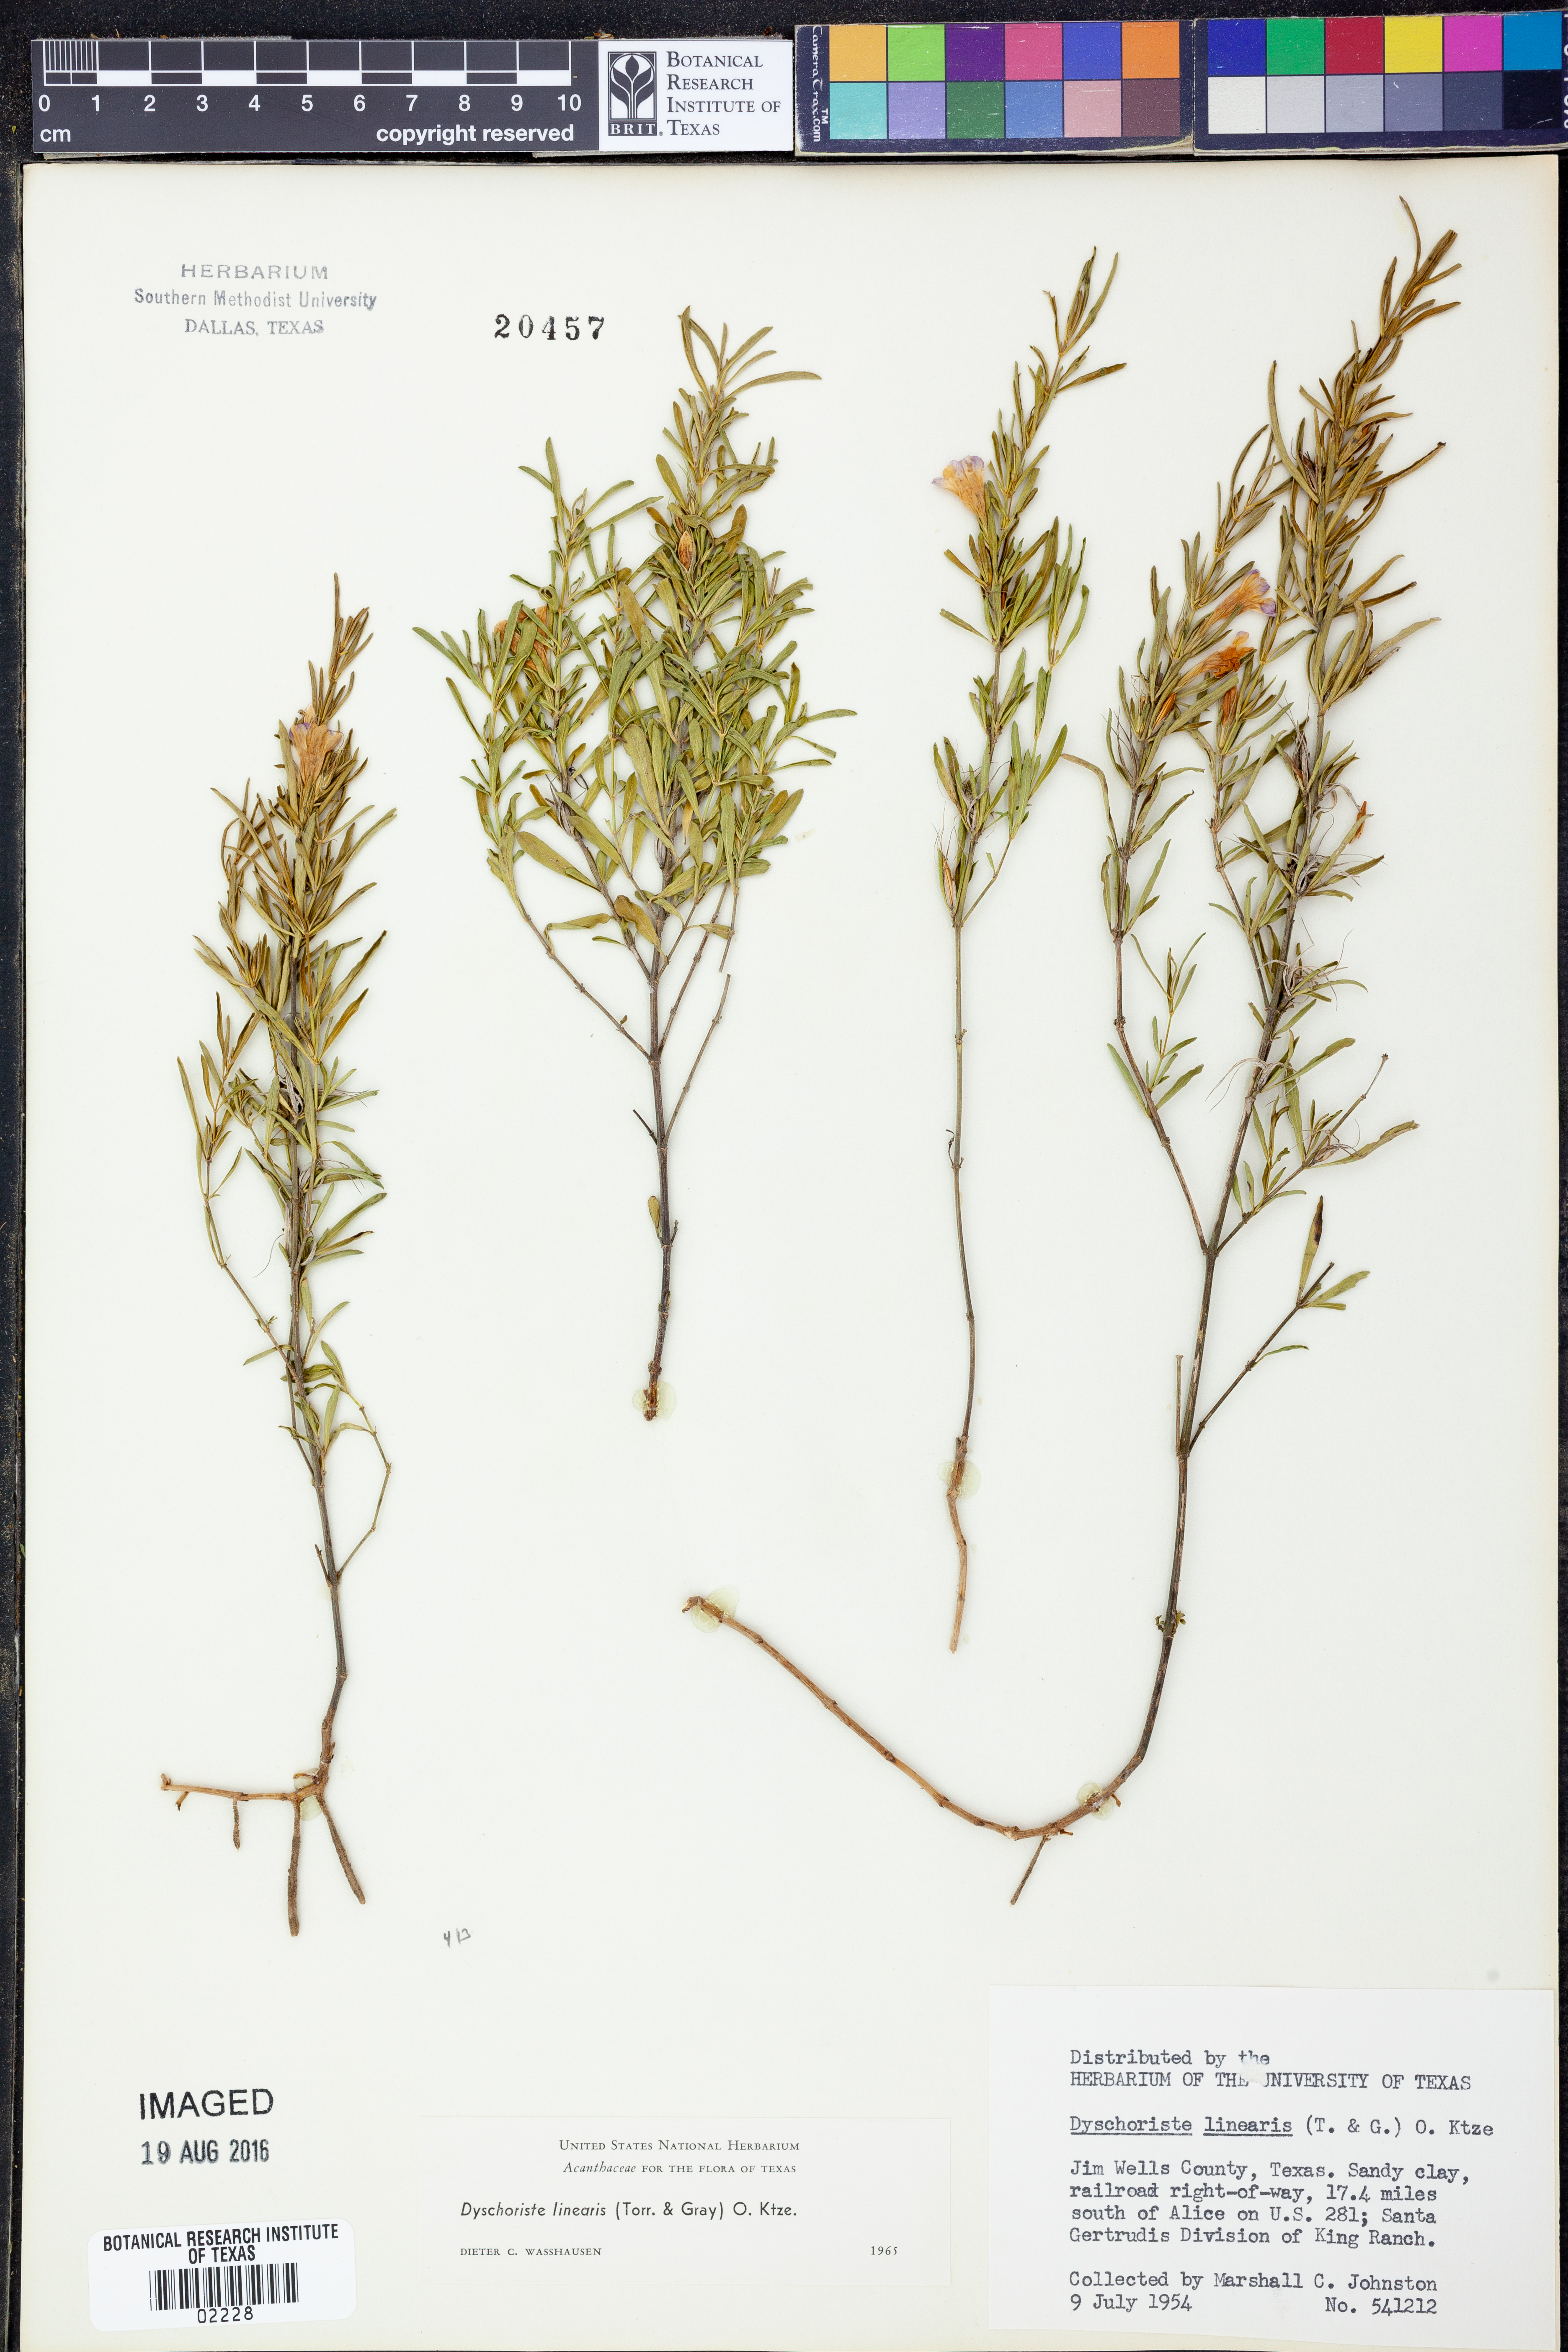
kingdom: Plantae
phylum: Tracheophyta
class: Magnoliopsida
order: Lamiales
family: Acanthaceae
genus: Dyschoriste
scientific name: Dyschoriste linearis
